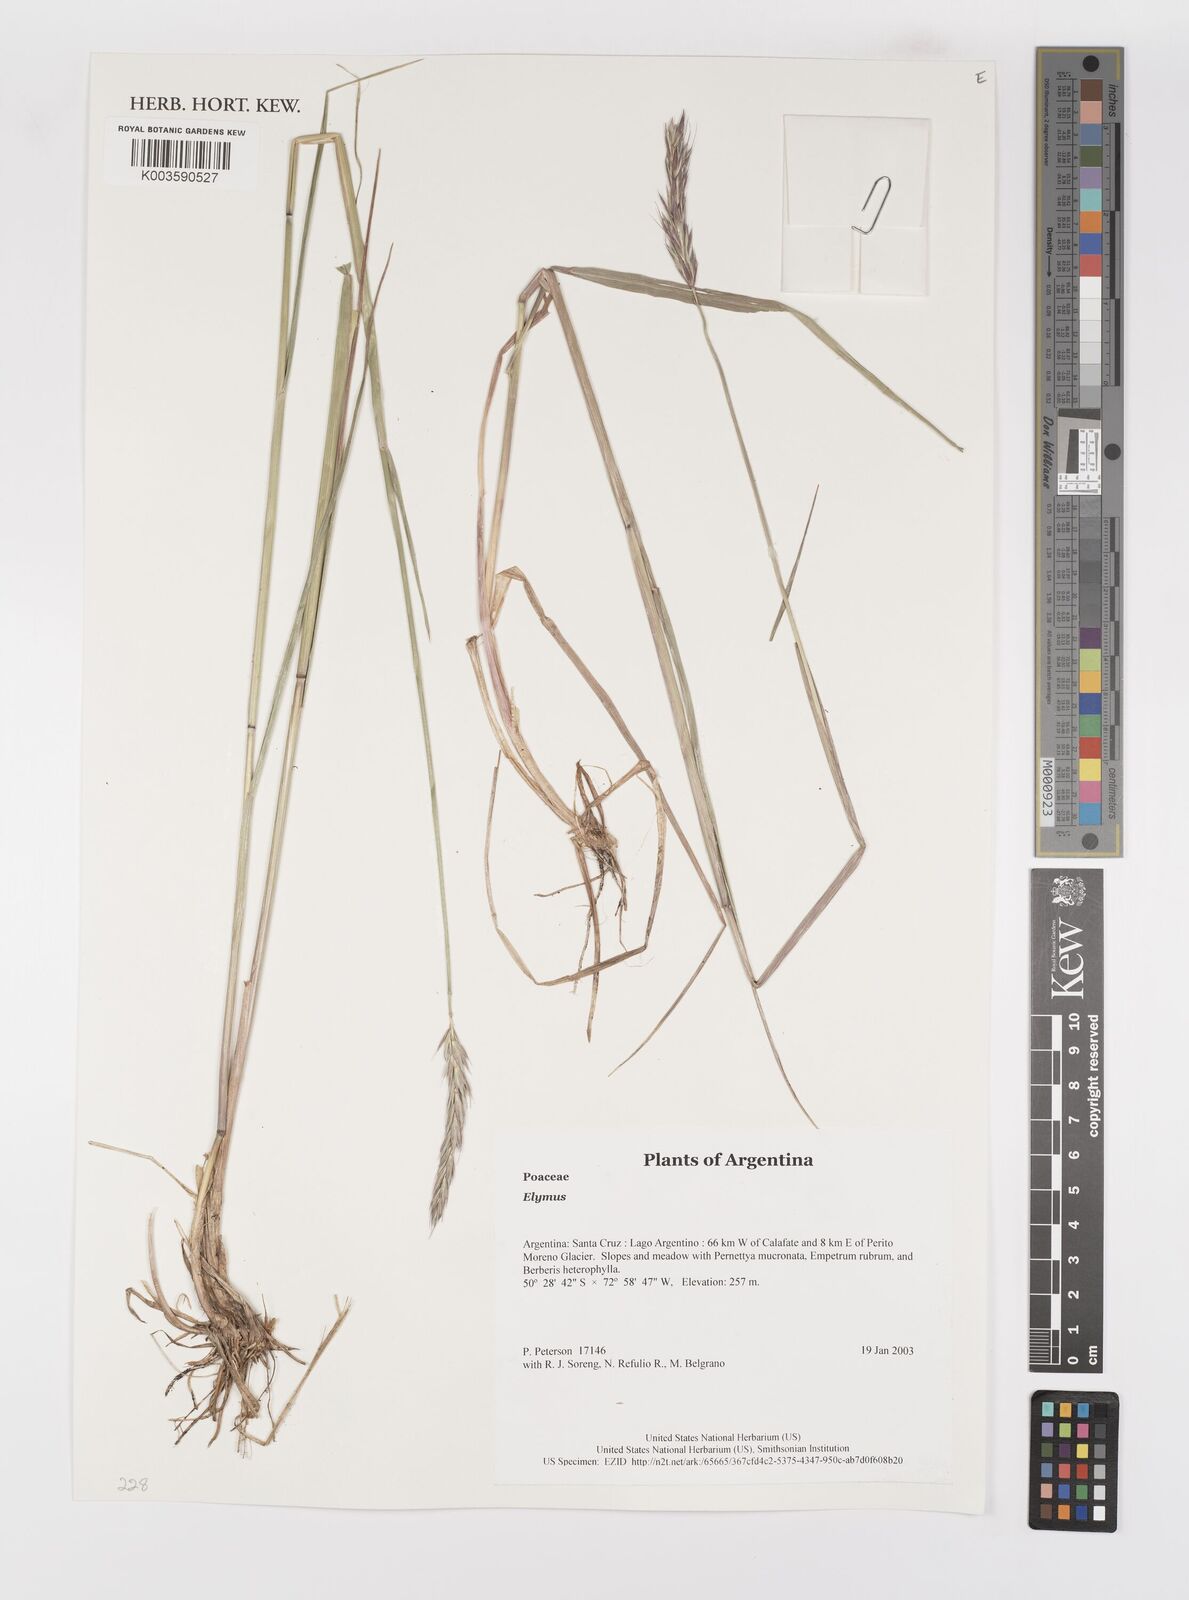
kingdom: Plantae
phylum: Tracheophyta
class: Liliopsida
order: Poales
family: Poaceae
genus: Elymus
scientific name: Elymus
